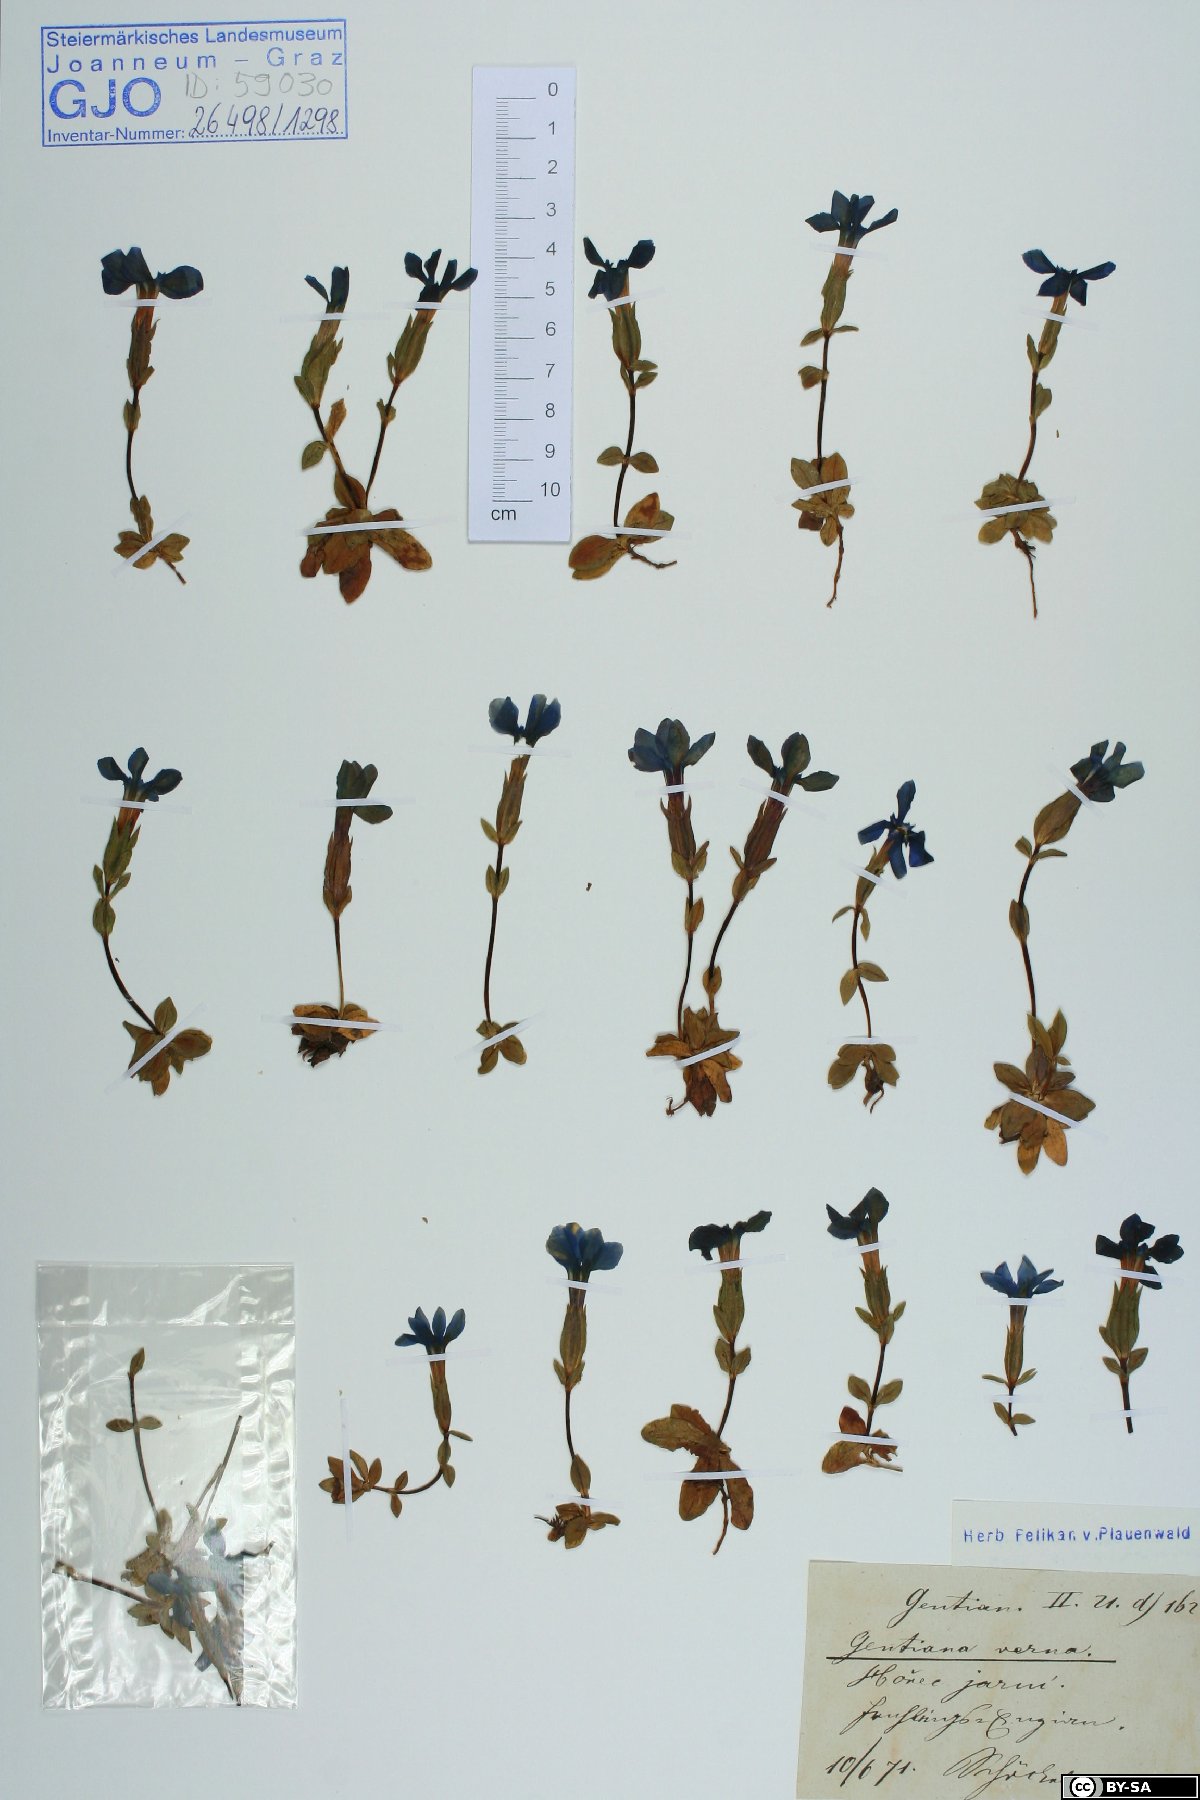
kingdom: Plantae
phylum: Tracheophyta
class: Magnoliopsida
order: Gentianales
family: Gentianaceae
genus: Gentiana
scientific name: Gentiana verna
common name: Spring gentian
